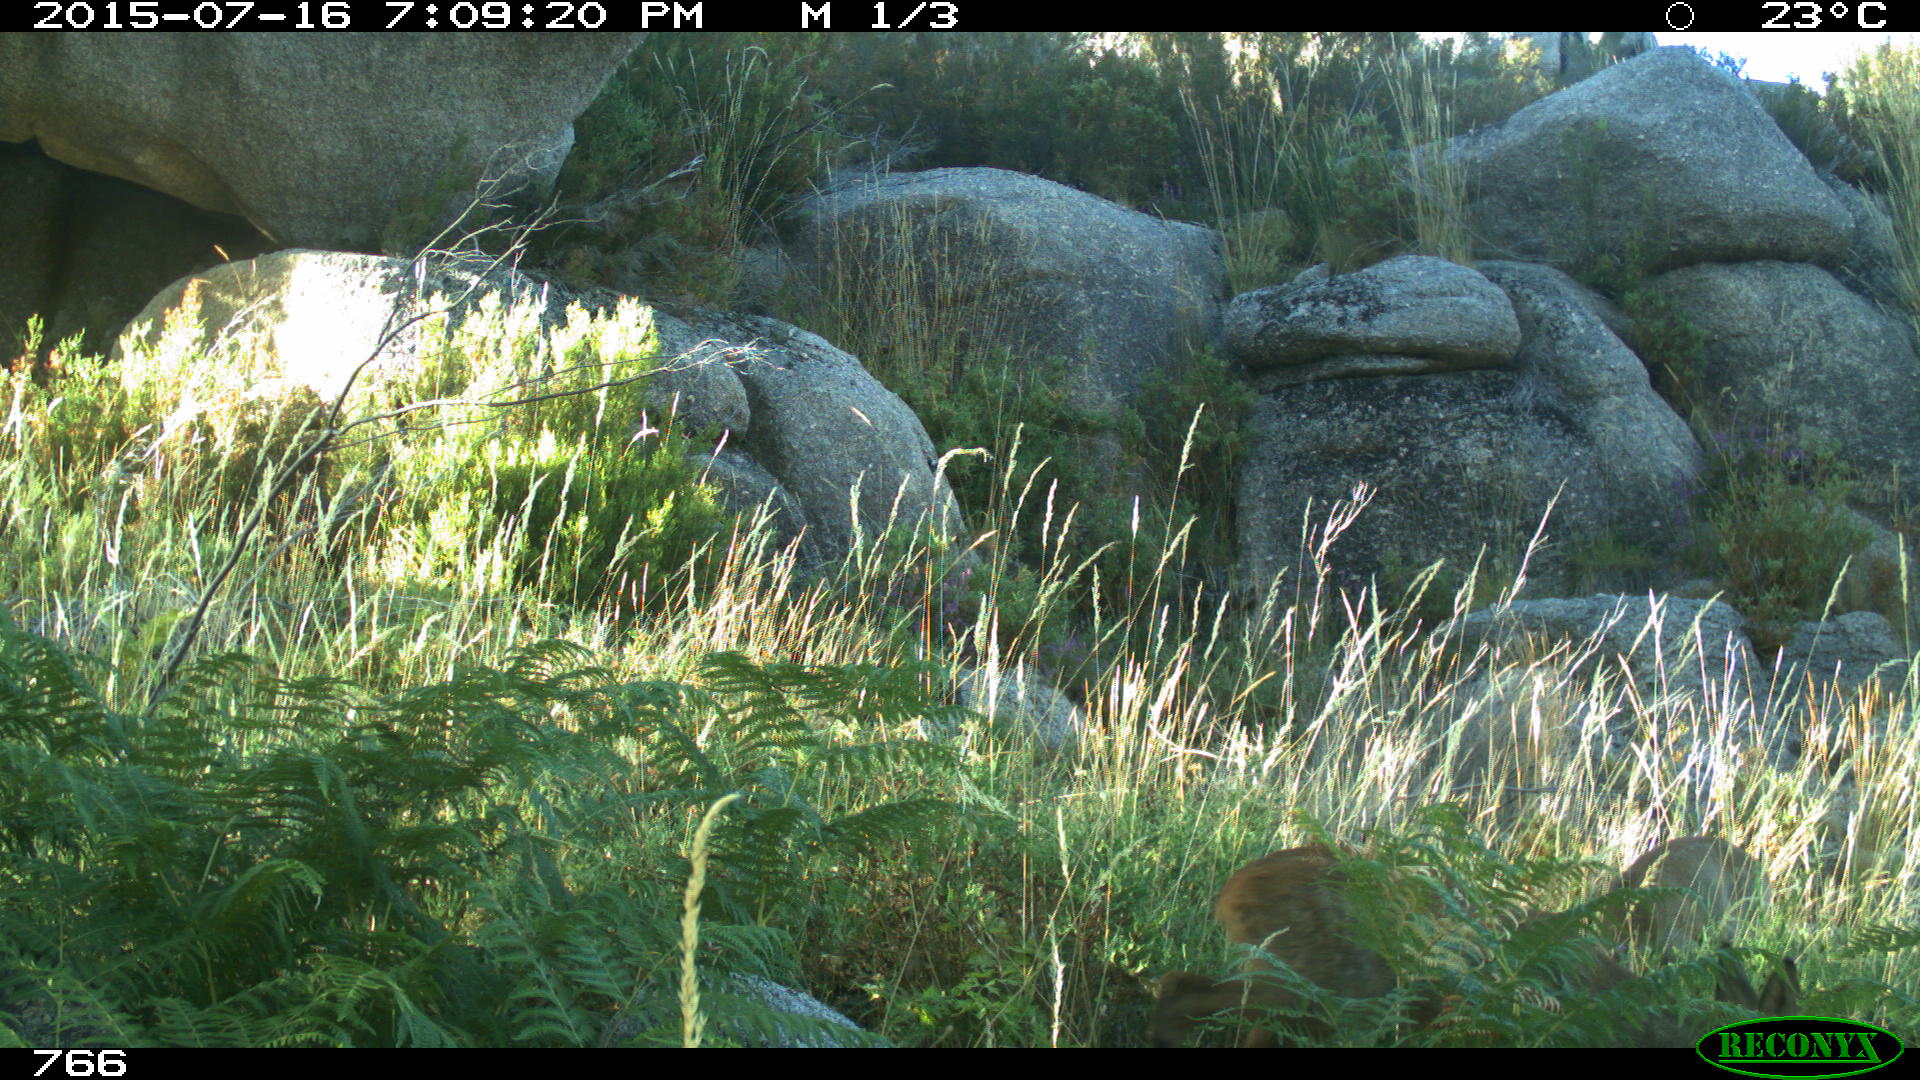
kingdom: Animalia
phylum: Chordata
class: Mammalia
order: Artiodactyla
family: Cervidae
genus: Capreolus
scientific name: Capreolus capreolus
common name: Western roe deer
